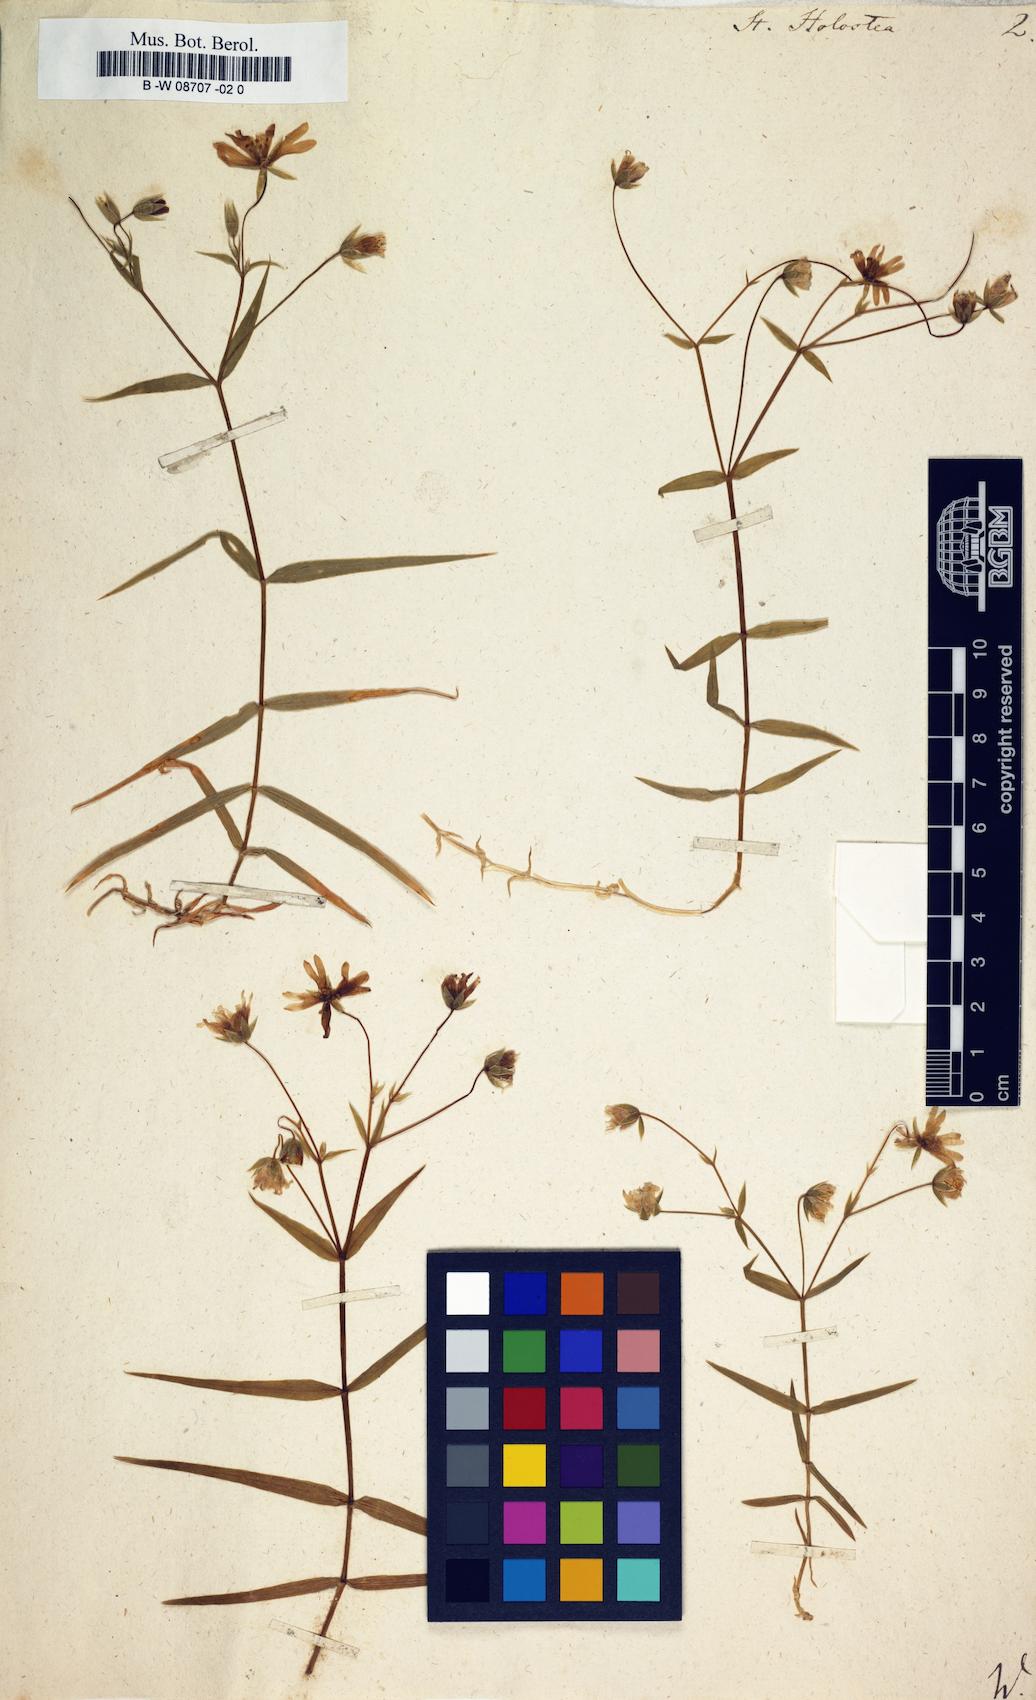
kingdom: Plantae
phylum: Tracheophyta
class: Magnoliopsida
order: Caryophyllales
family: Caryophyllaceae
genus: Rabelera
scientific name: Rabelera holostea
